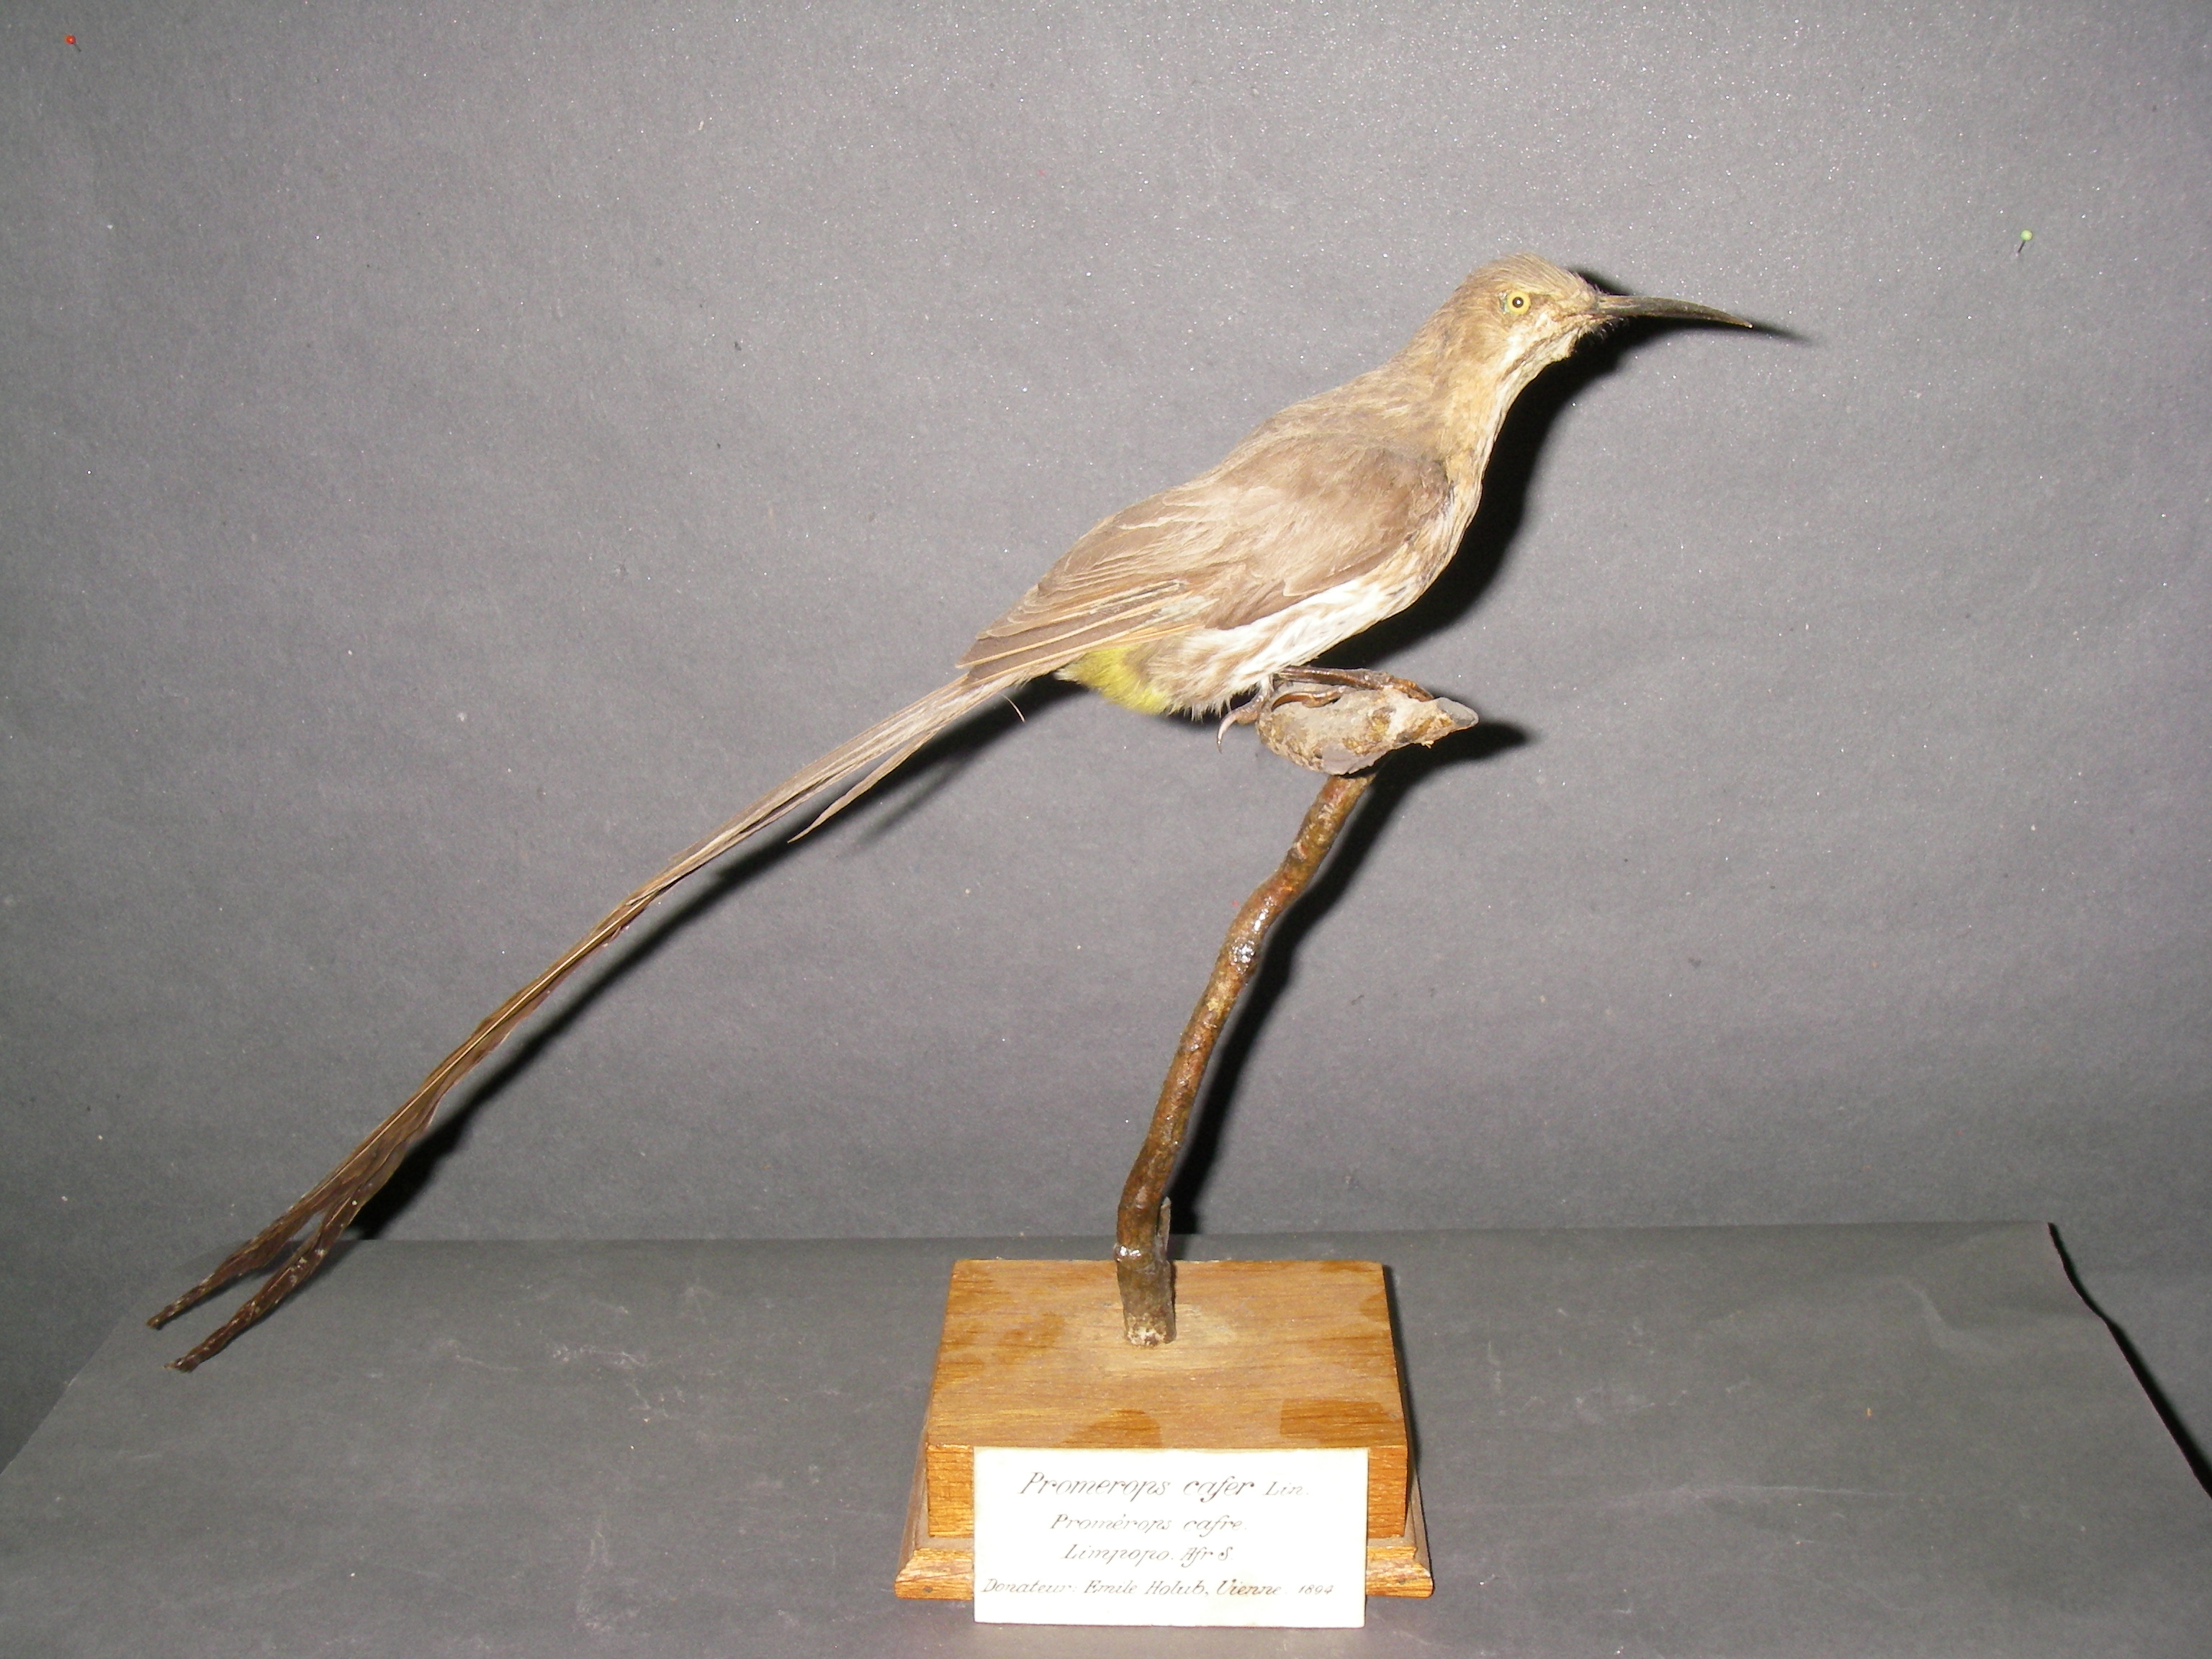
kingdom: Animalia
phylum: Chordata
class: Aves
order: Passeriformes
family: Promeropidae
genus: Promerops
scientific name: Promerops cafer
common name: Cape sugarbird
